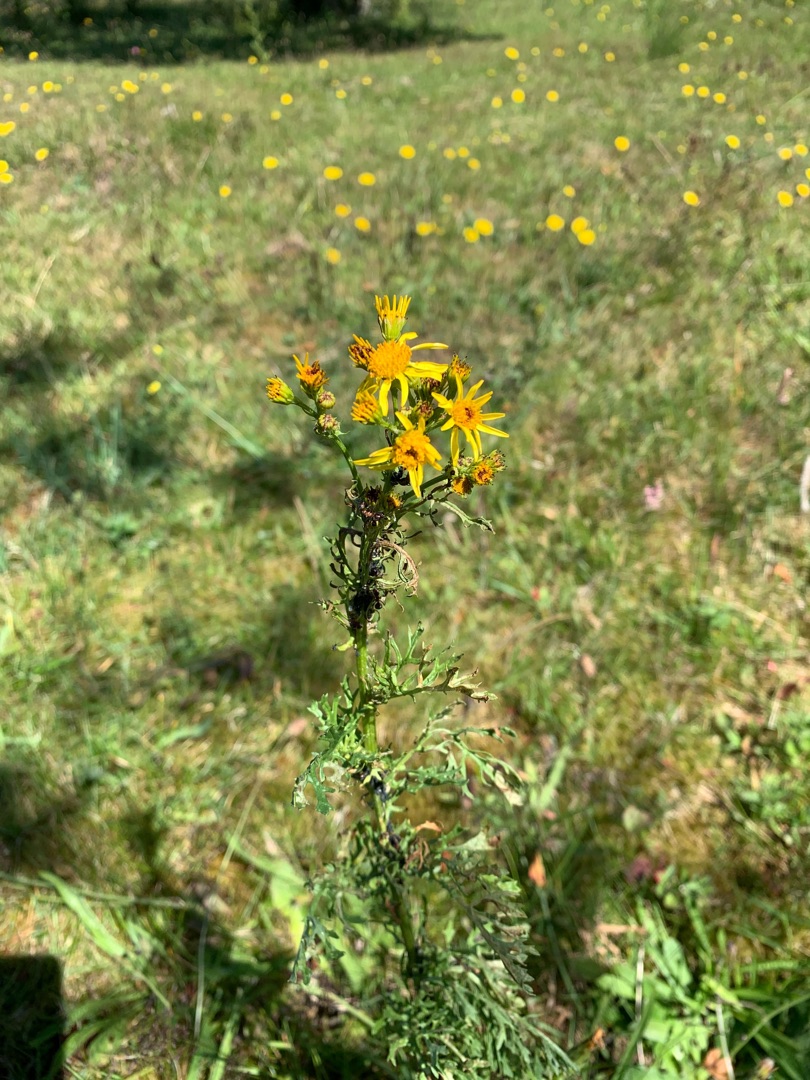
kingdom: Plantae
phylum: Tracheophyta
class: Magnoliopsida
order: Asterales
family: Asteraceae
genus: Jacobaea
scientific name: Jacobaea vulgaris
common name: Eng-brandbæger
